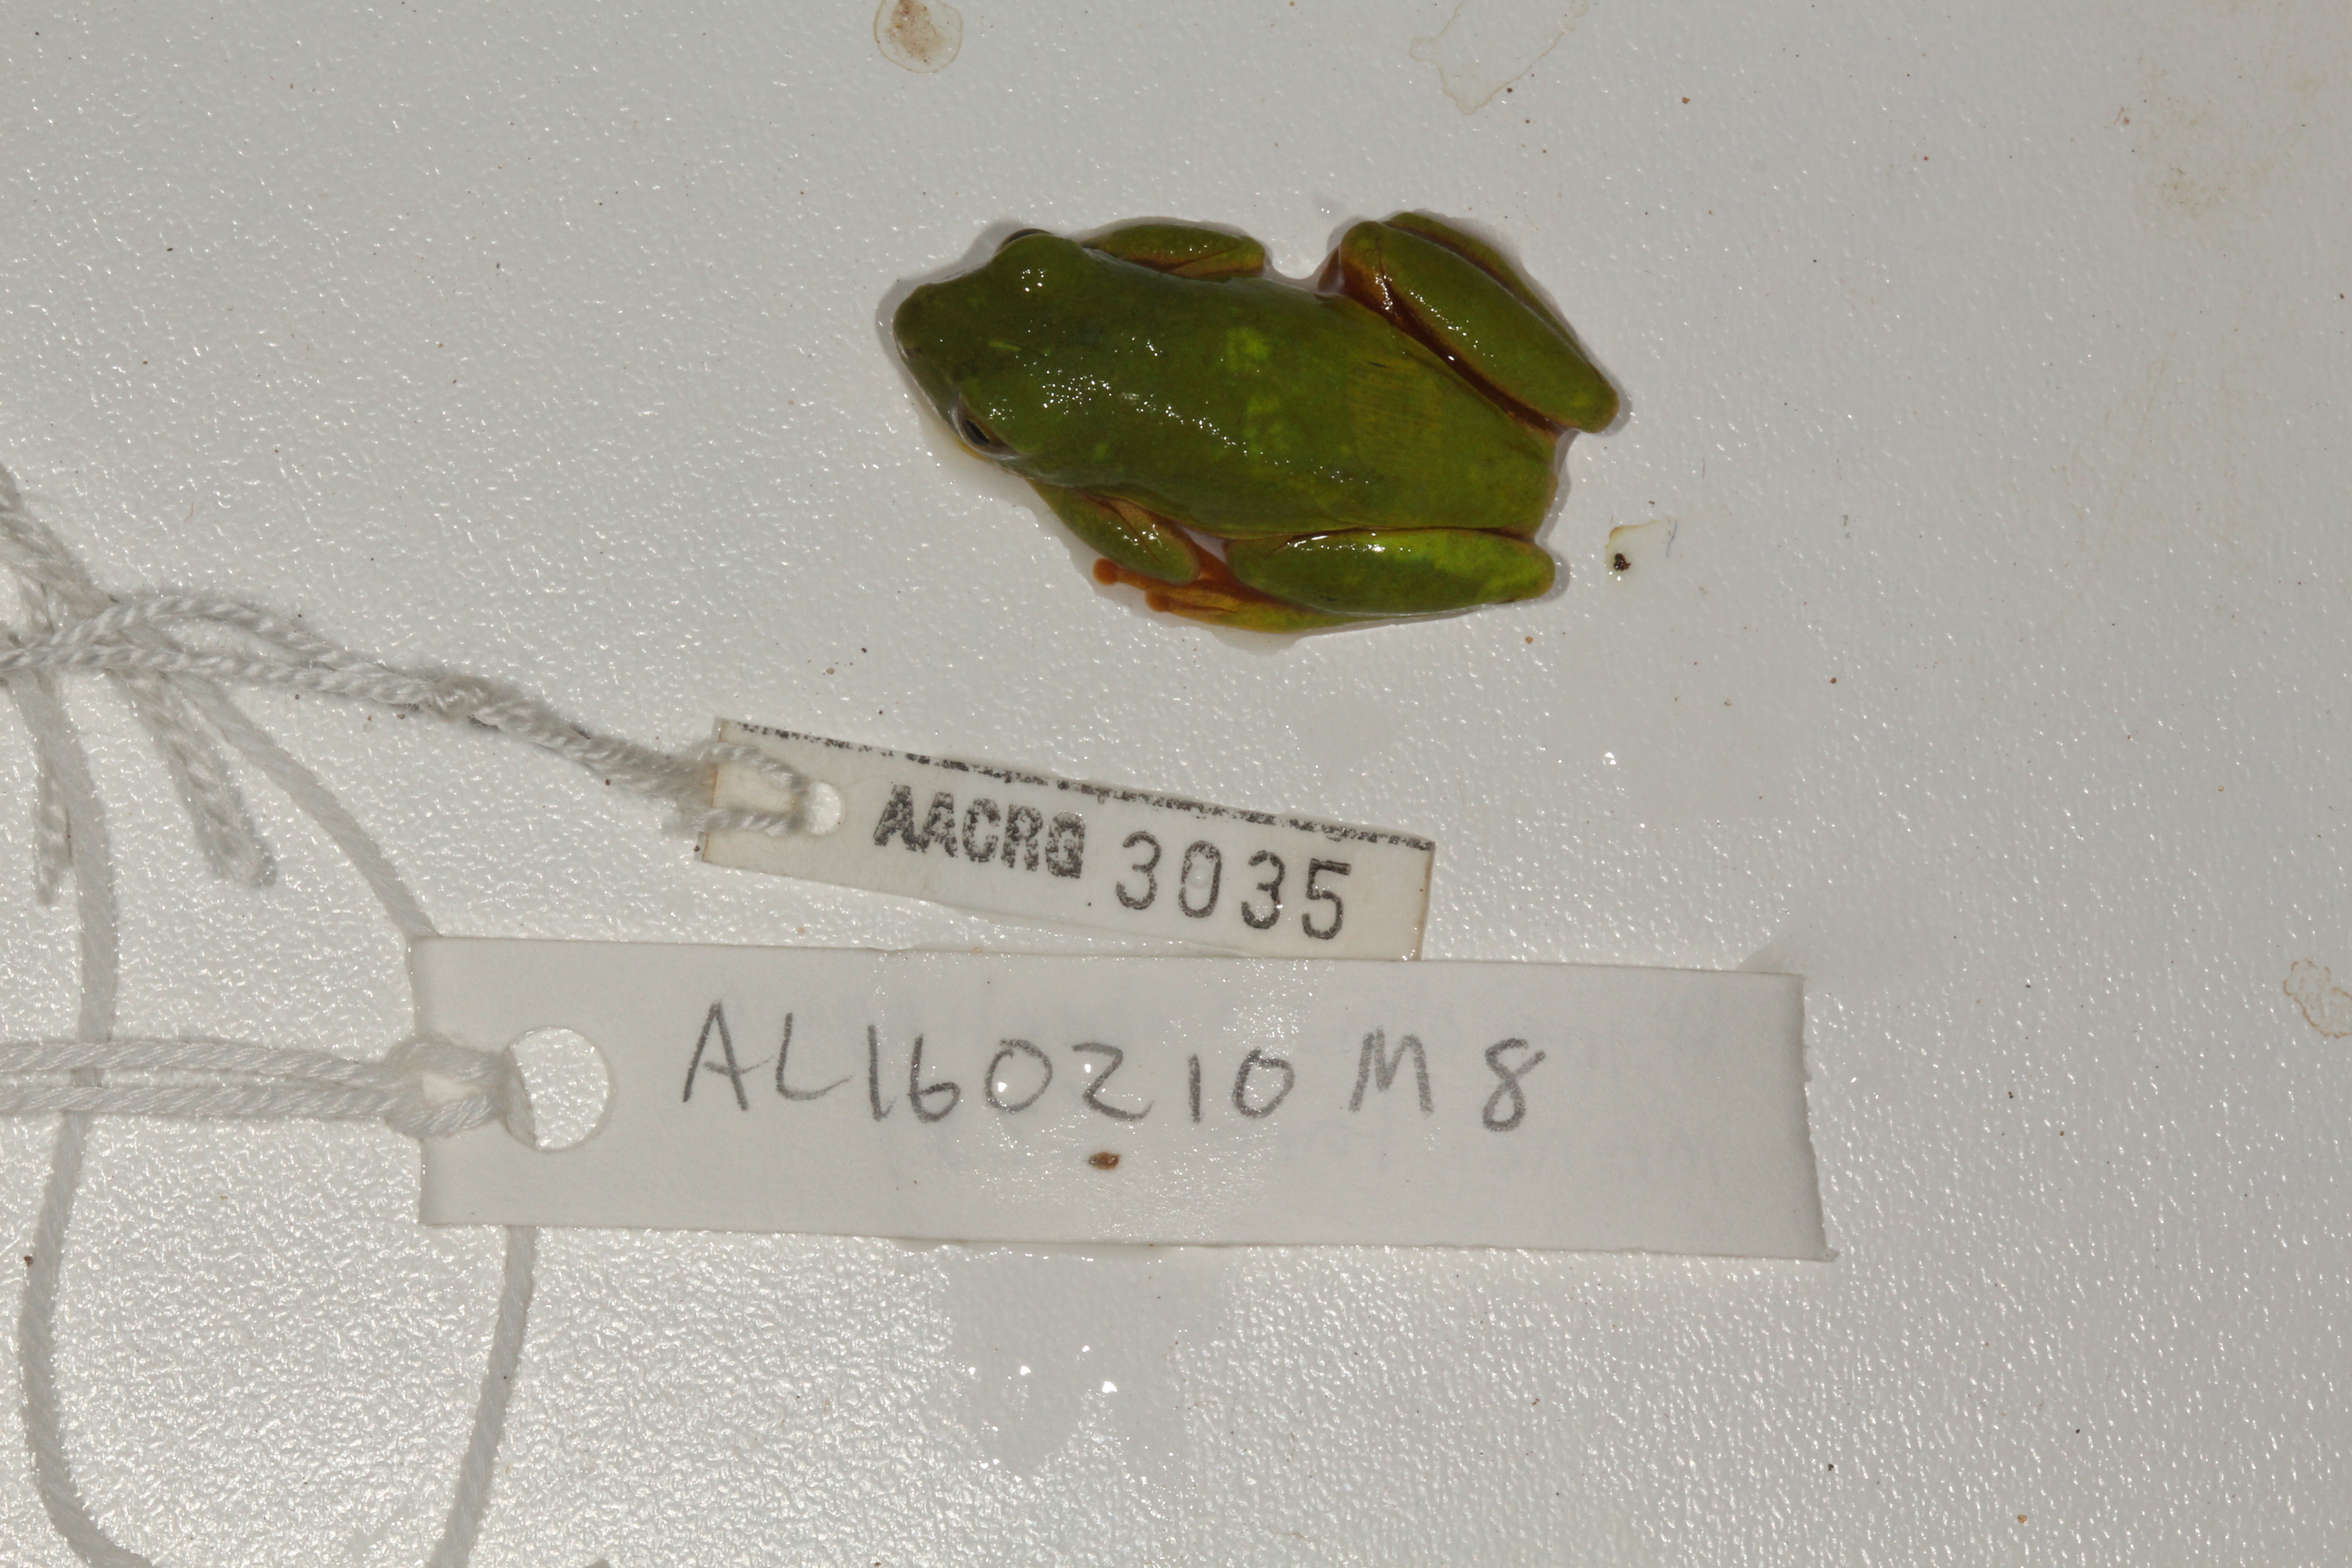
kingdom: Animalia
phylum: Chordata
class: Amphibia
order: Anura
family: Hyperoliidae
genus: Hyperolius
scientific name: Hyperolius tuberilinguis
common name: Tinker reed frog
